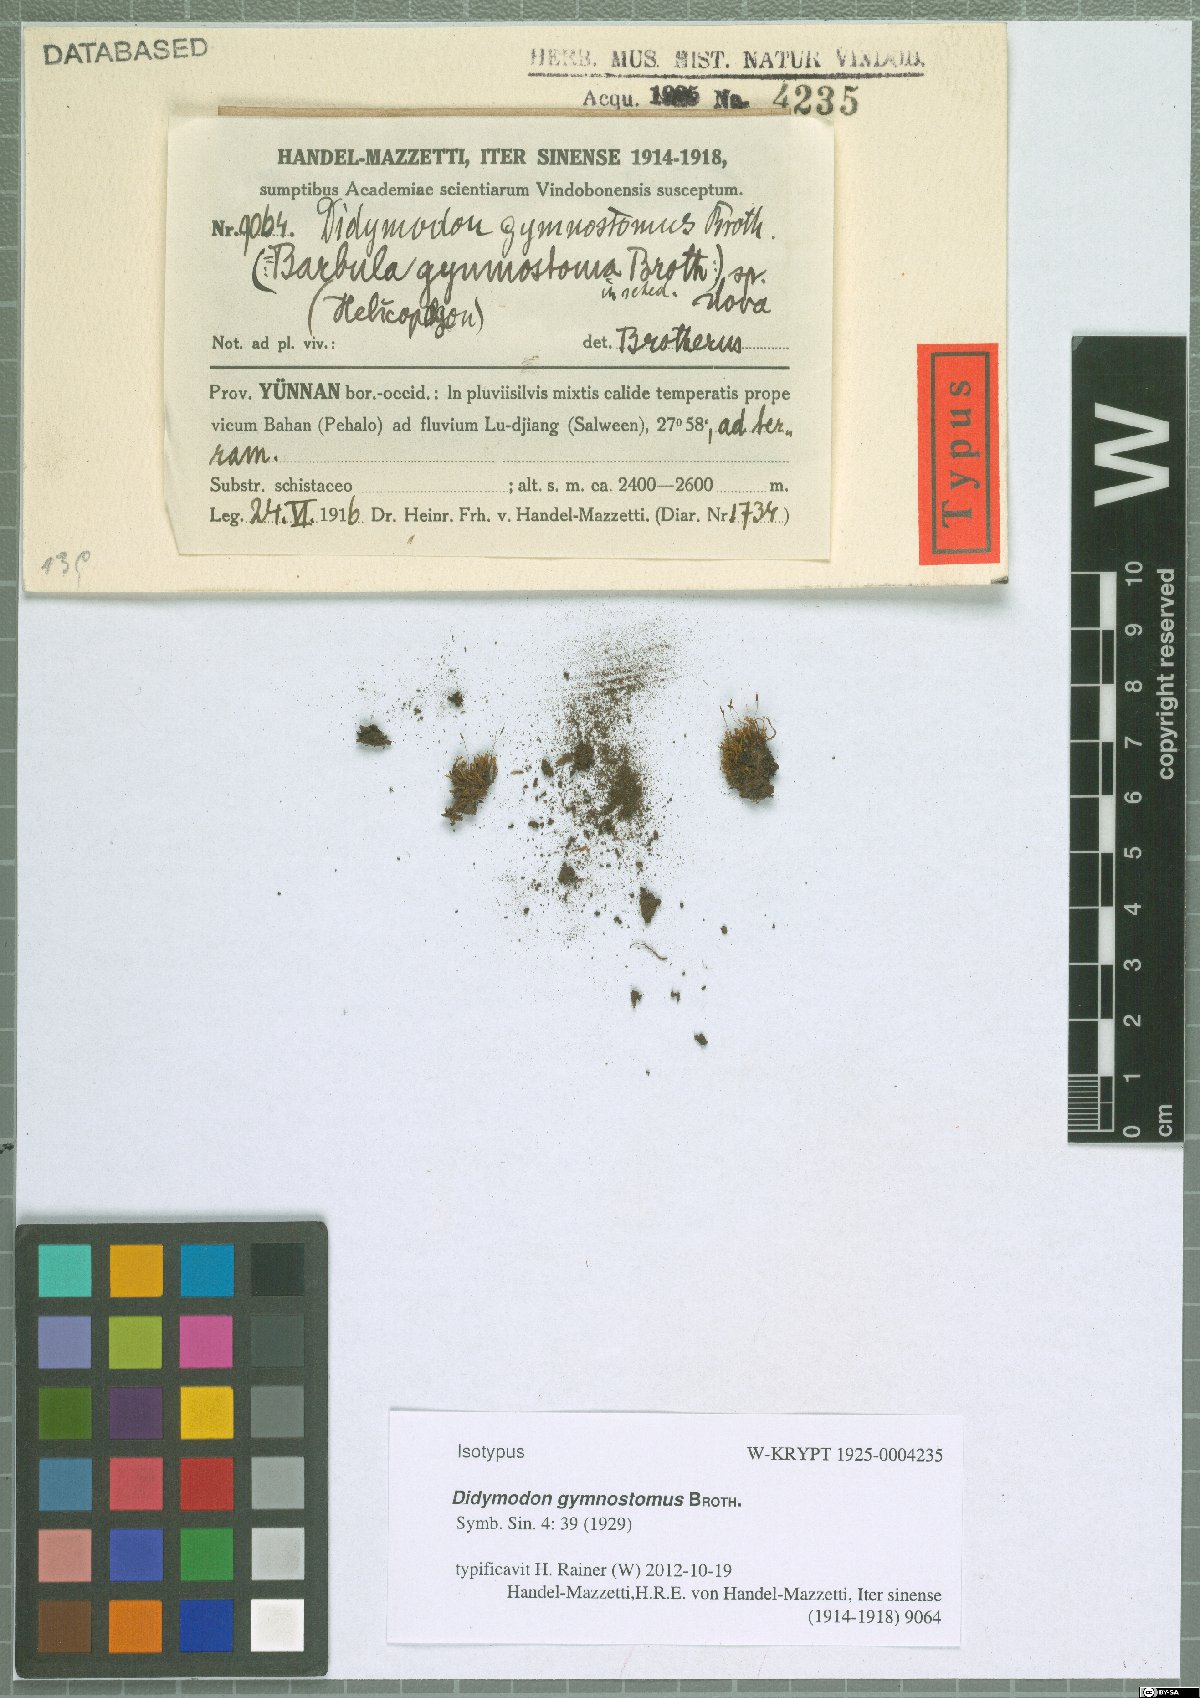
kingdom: Plantae
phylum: Bryophyta
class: Bryopsida
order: Pottiales
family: Pottiaceae
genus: Bryoerythrophyllum
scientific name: Bryoerythrophyllum gymnostomum
